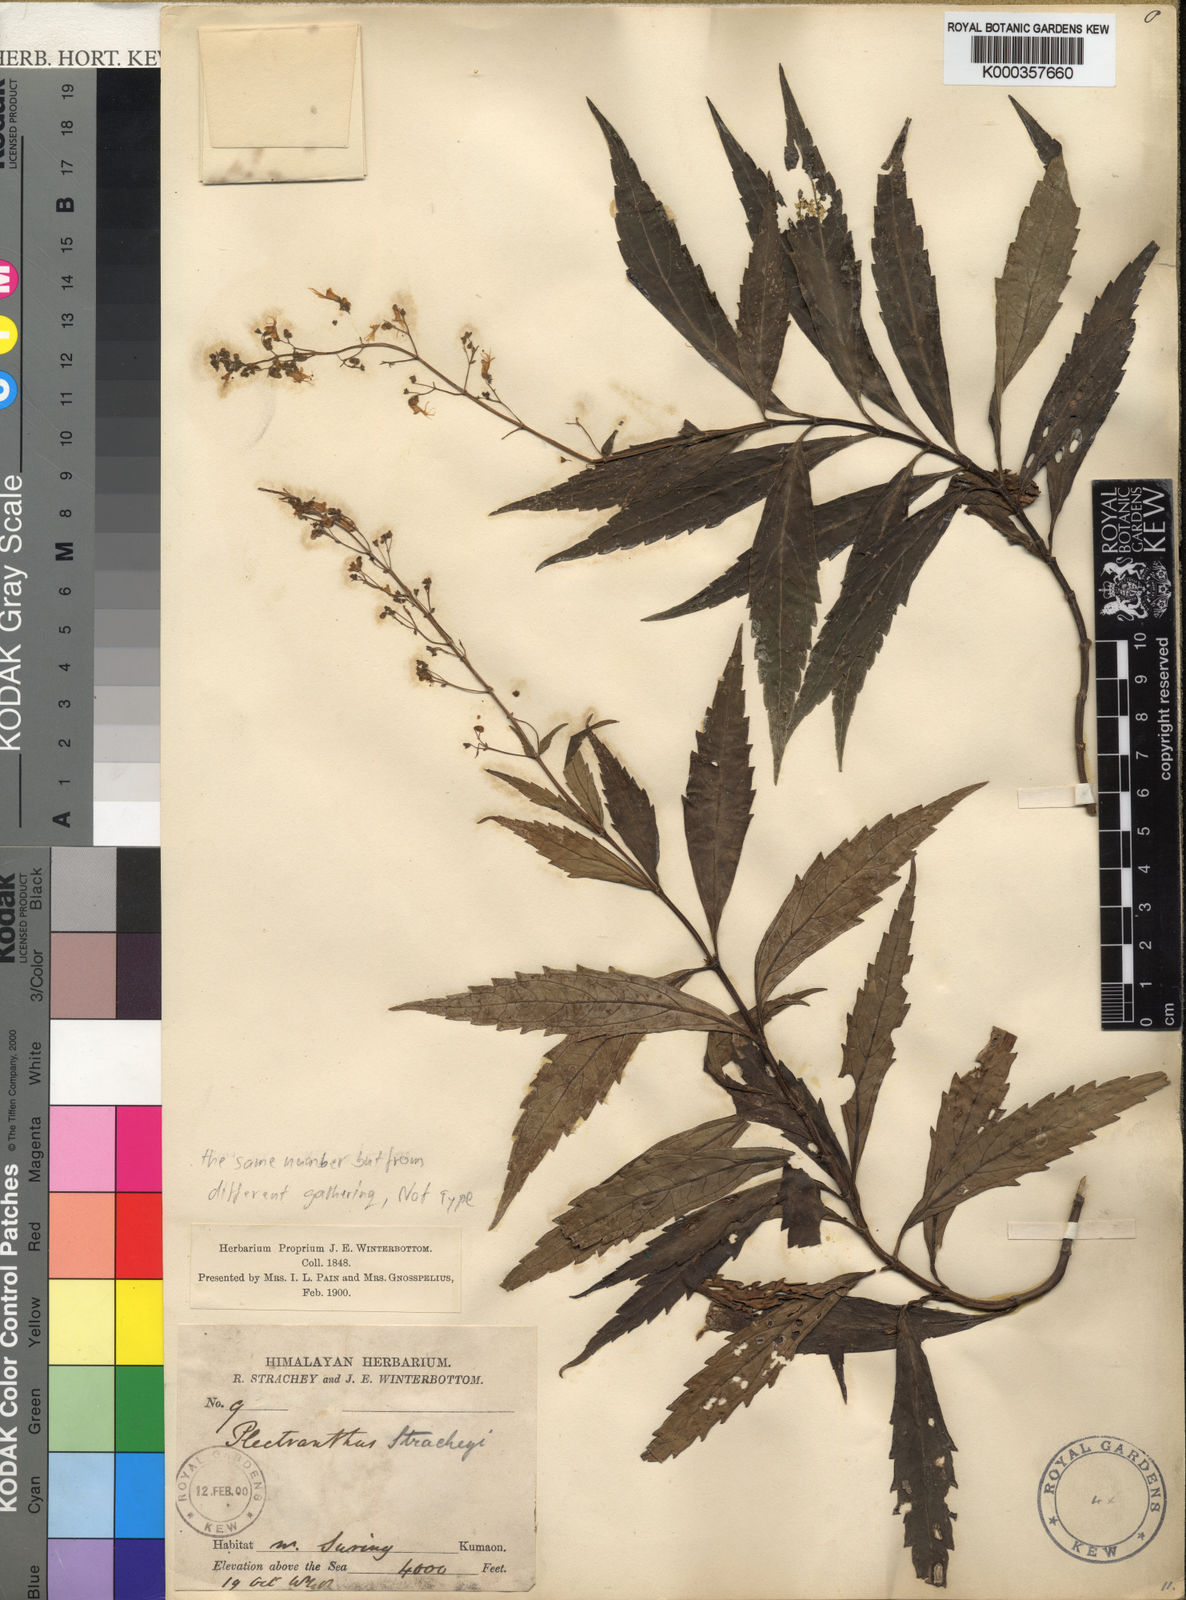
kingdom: Plantae
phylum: Tracheophyta
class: Magnoliopsida
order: Lamiales
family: Lamiaceae
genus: Isodon
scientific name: Isodon walkeri
